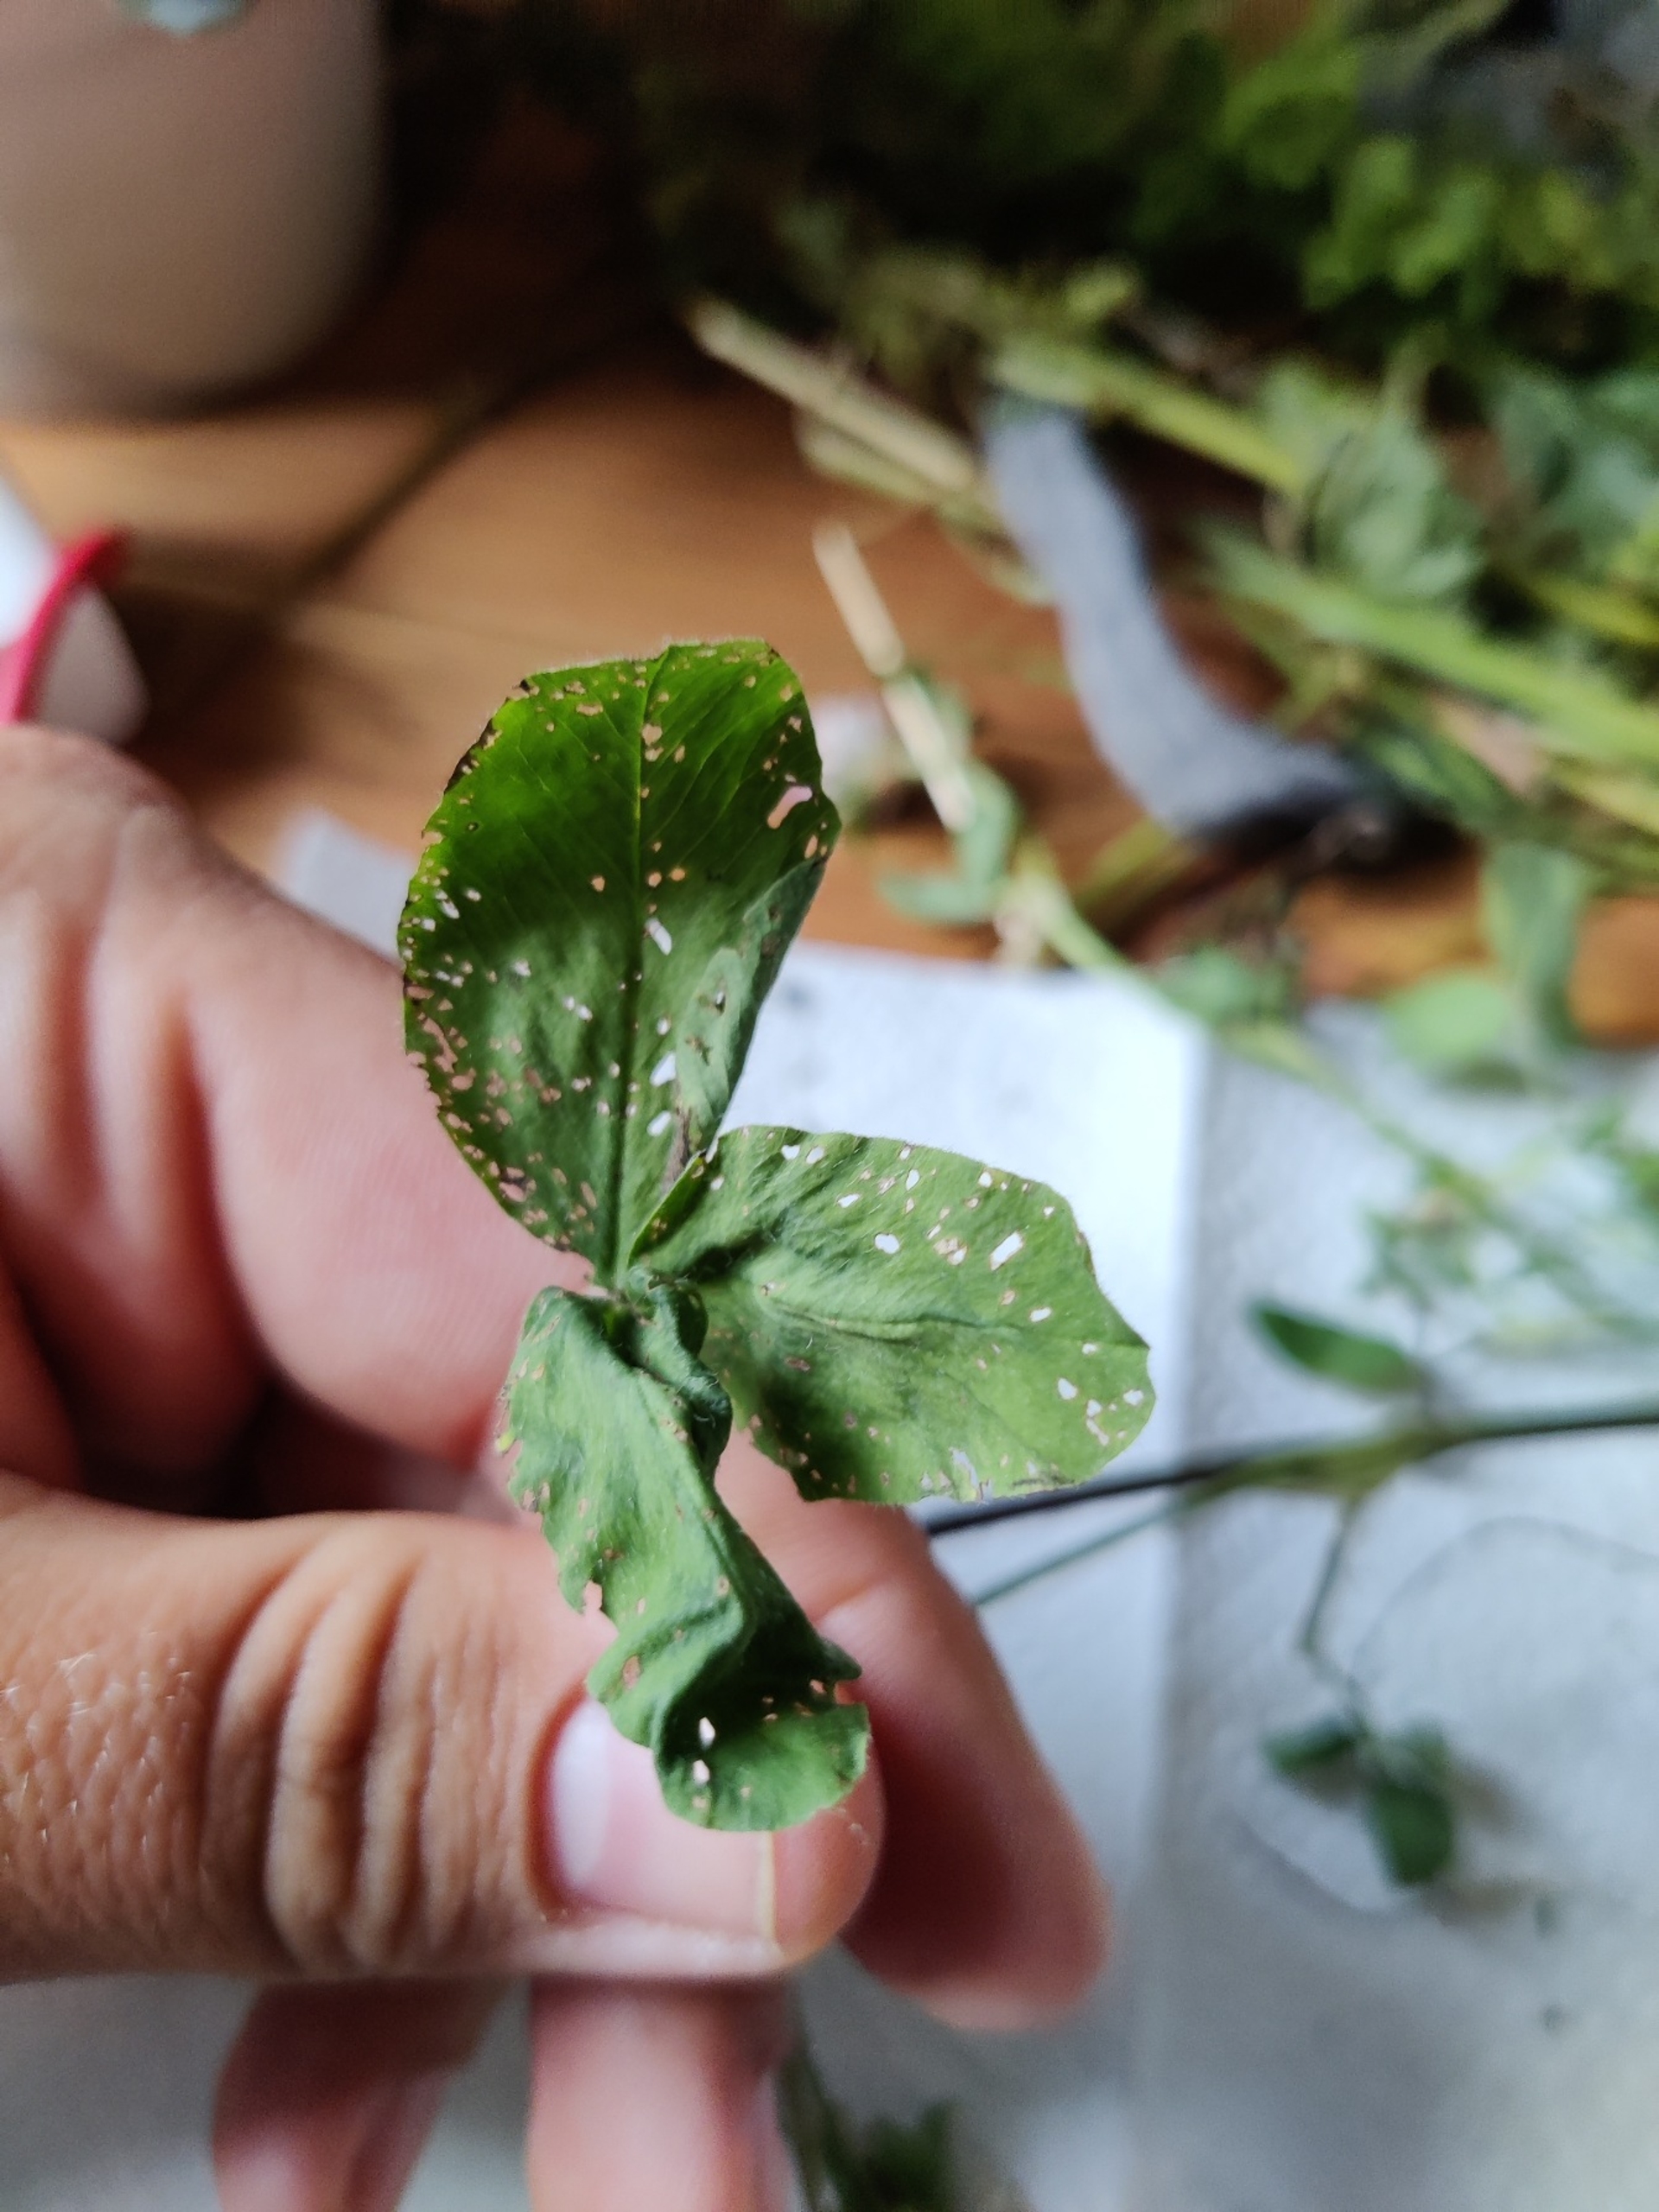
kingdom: Plantae
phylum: Tracheophyta
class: Magnoliopsida
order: Fabales
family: Fabaceae
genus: Trifolium
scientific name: Trifolium pratense
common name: Rød-kløver
